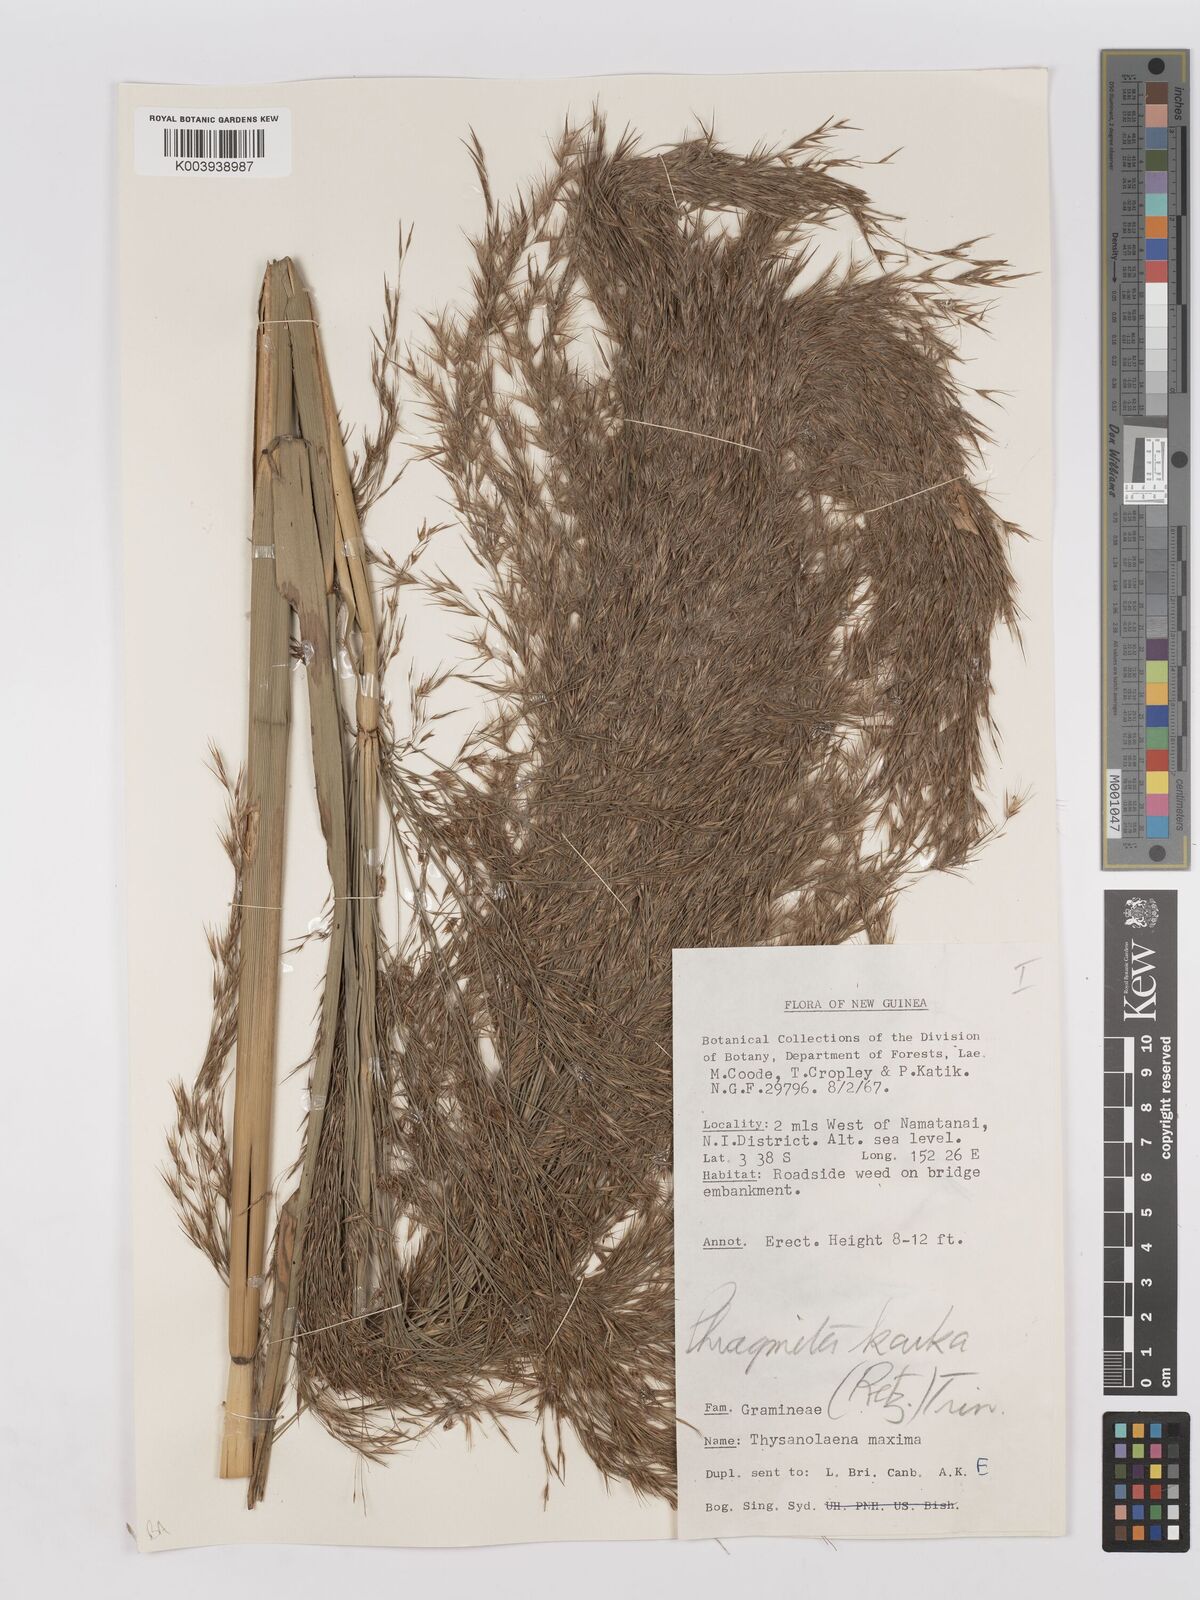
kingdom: Plantae
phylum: Tracheophyta
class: Liliopsida
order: Poales
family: Poaceae
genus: Phragmites
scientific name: Phragmites karka
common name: Tropical reed
